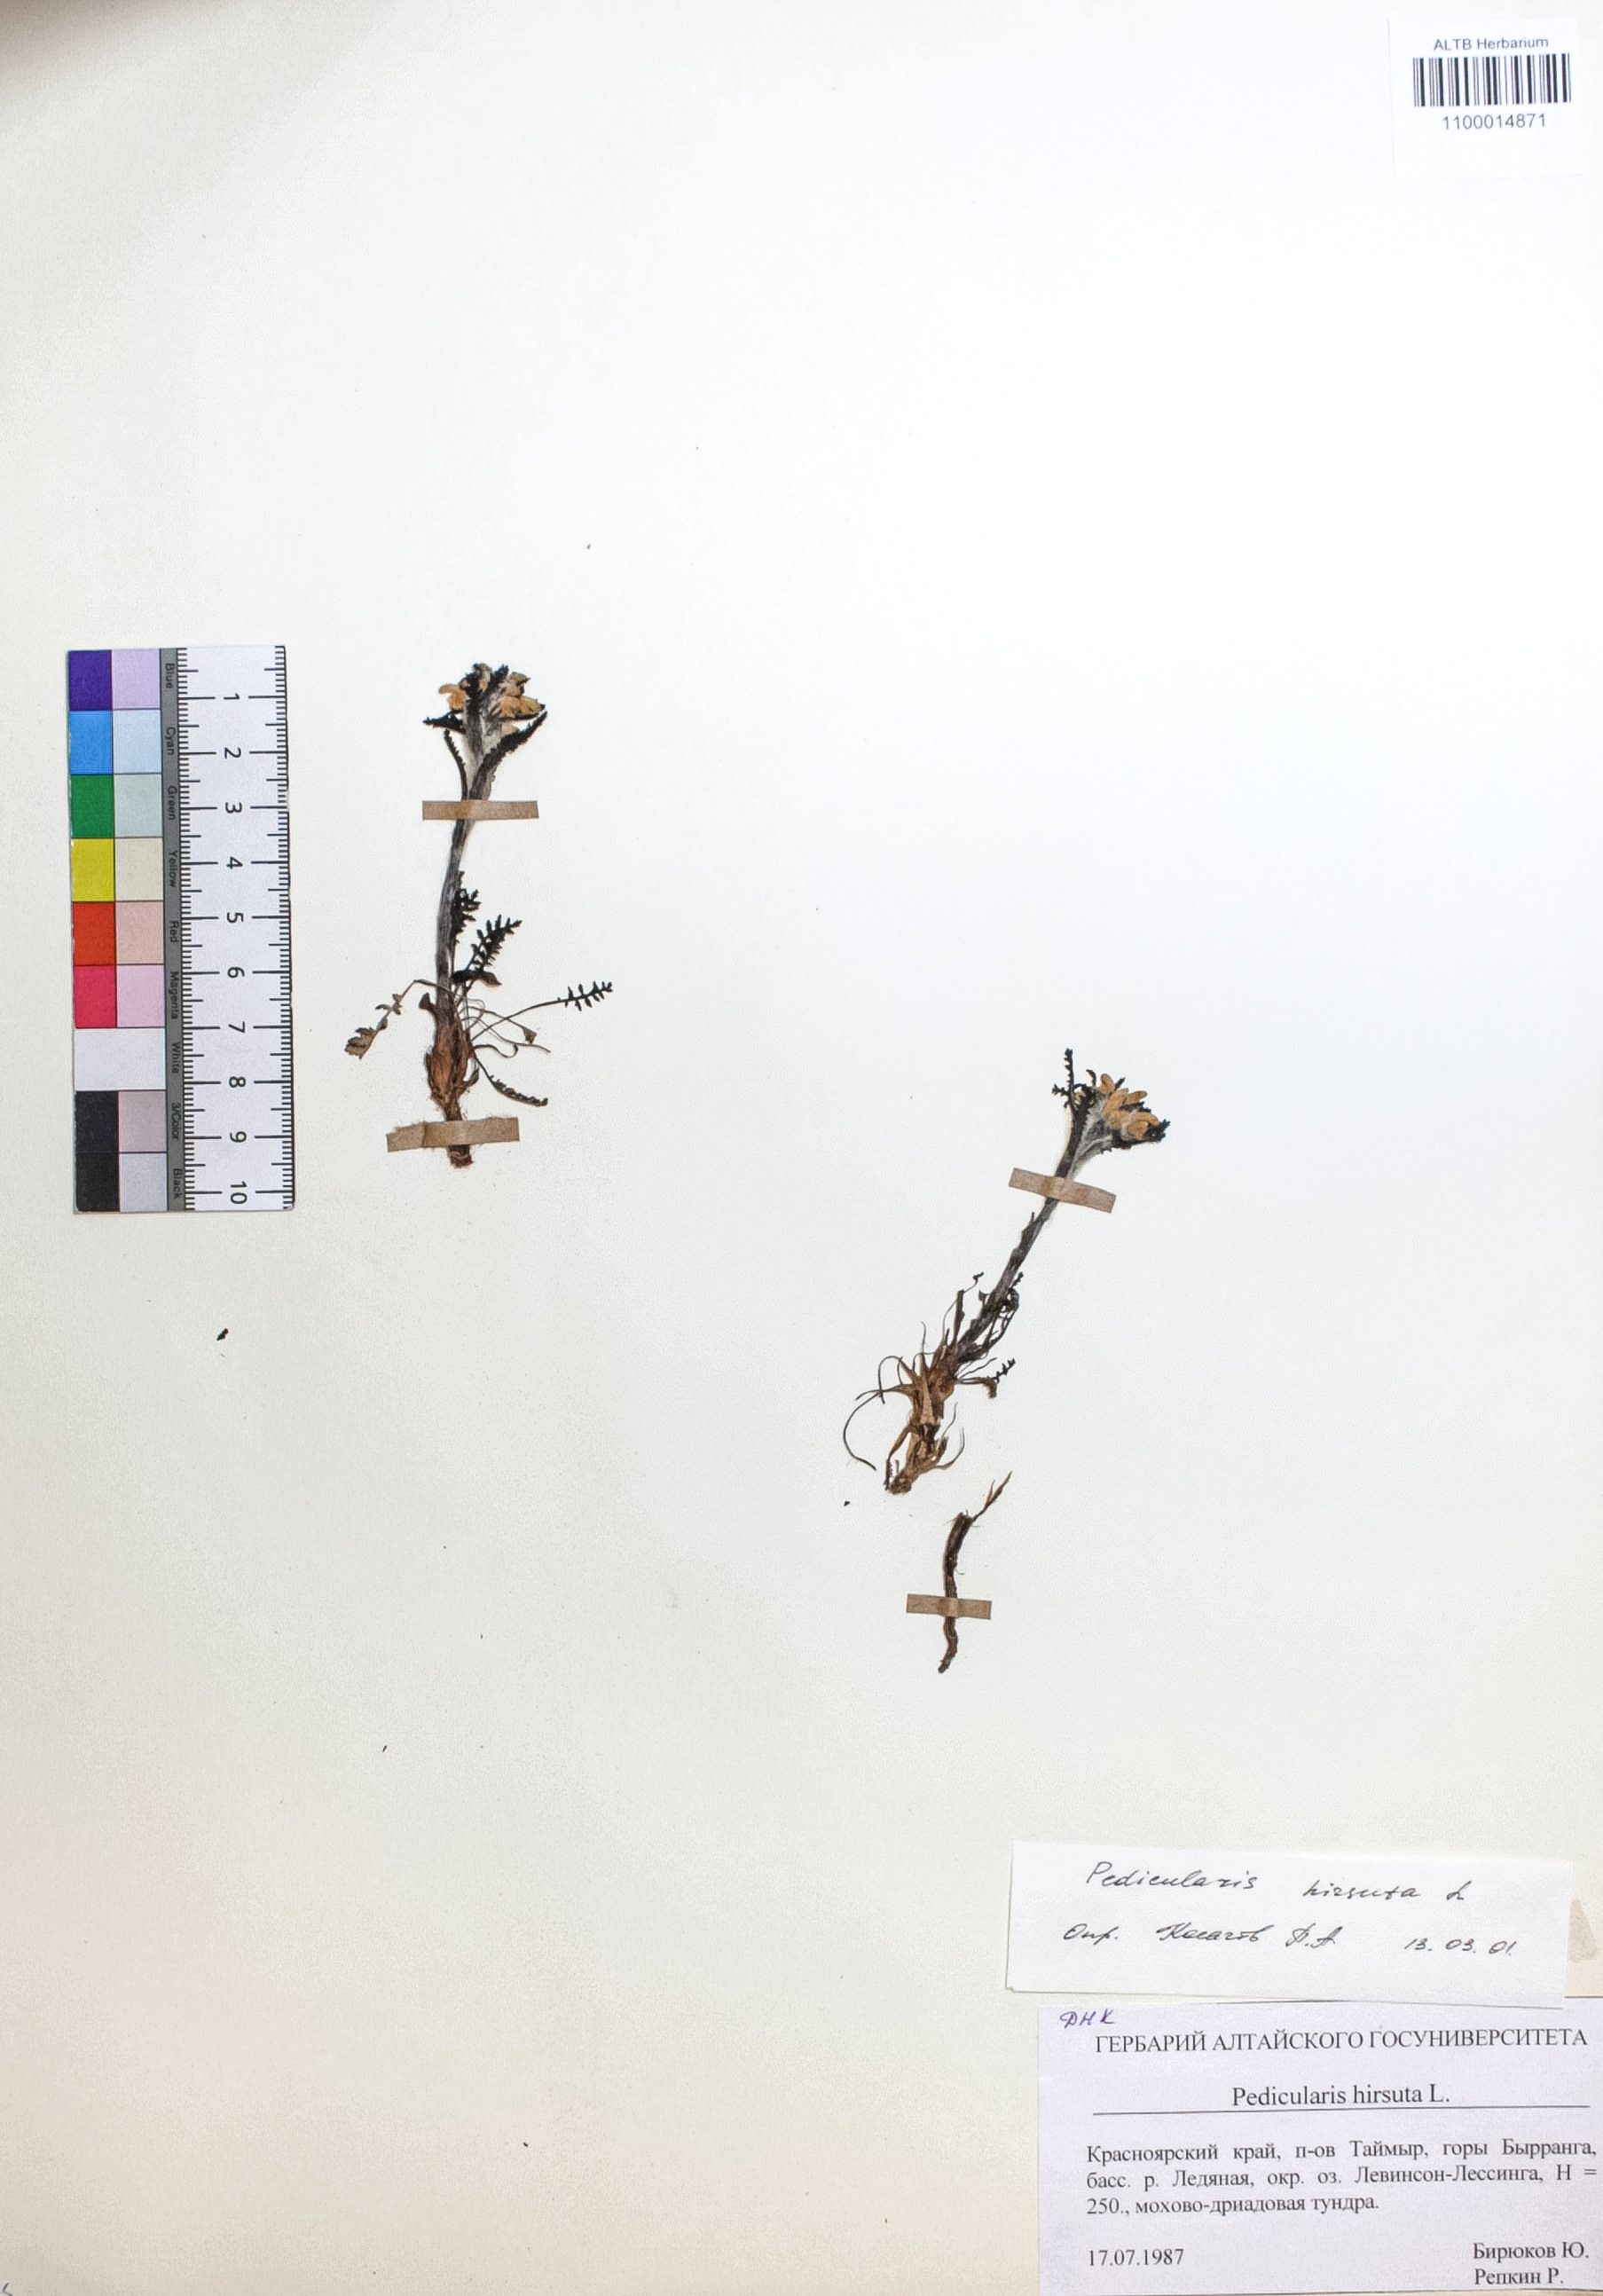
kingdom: Plantae
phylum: Tracheophyta
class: Magnoliopsida
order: Lamiales
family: Orobanchaceae
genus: Pedicularis
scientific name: Pedicularis hirsuta
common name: Hairy lousewort
